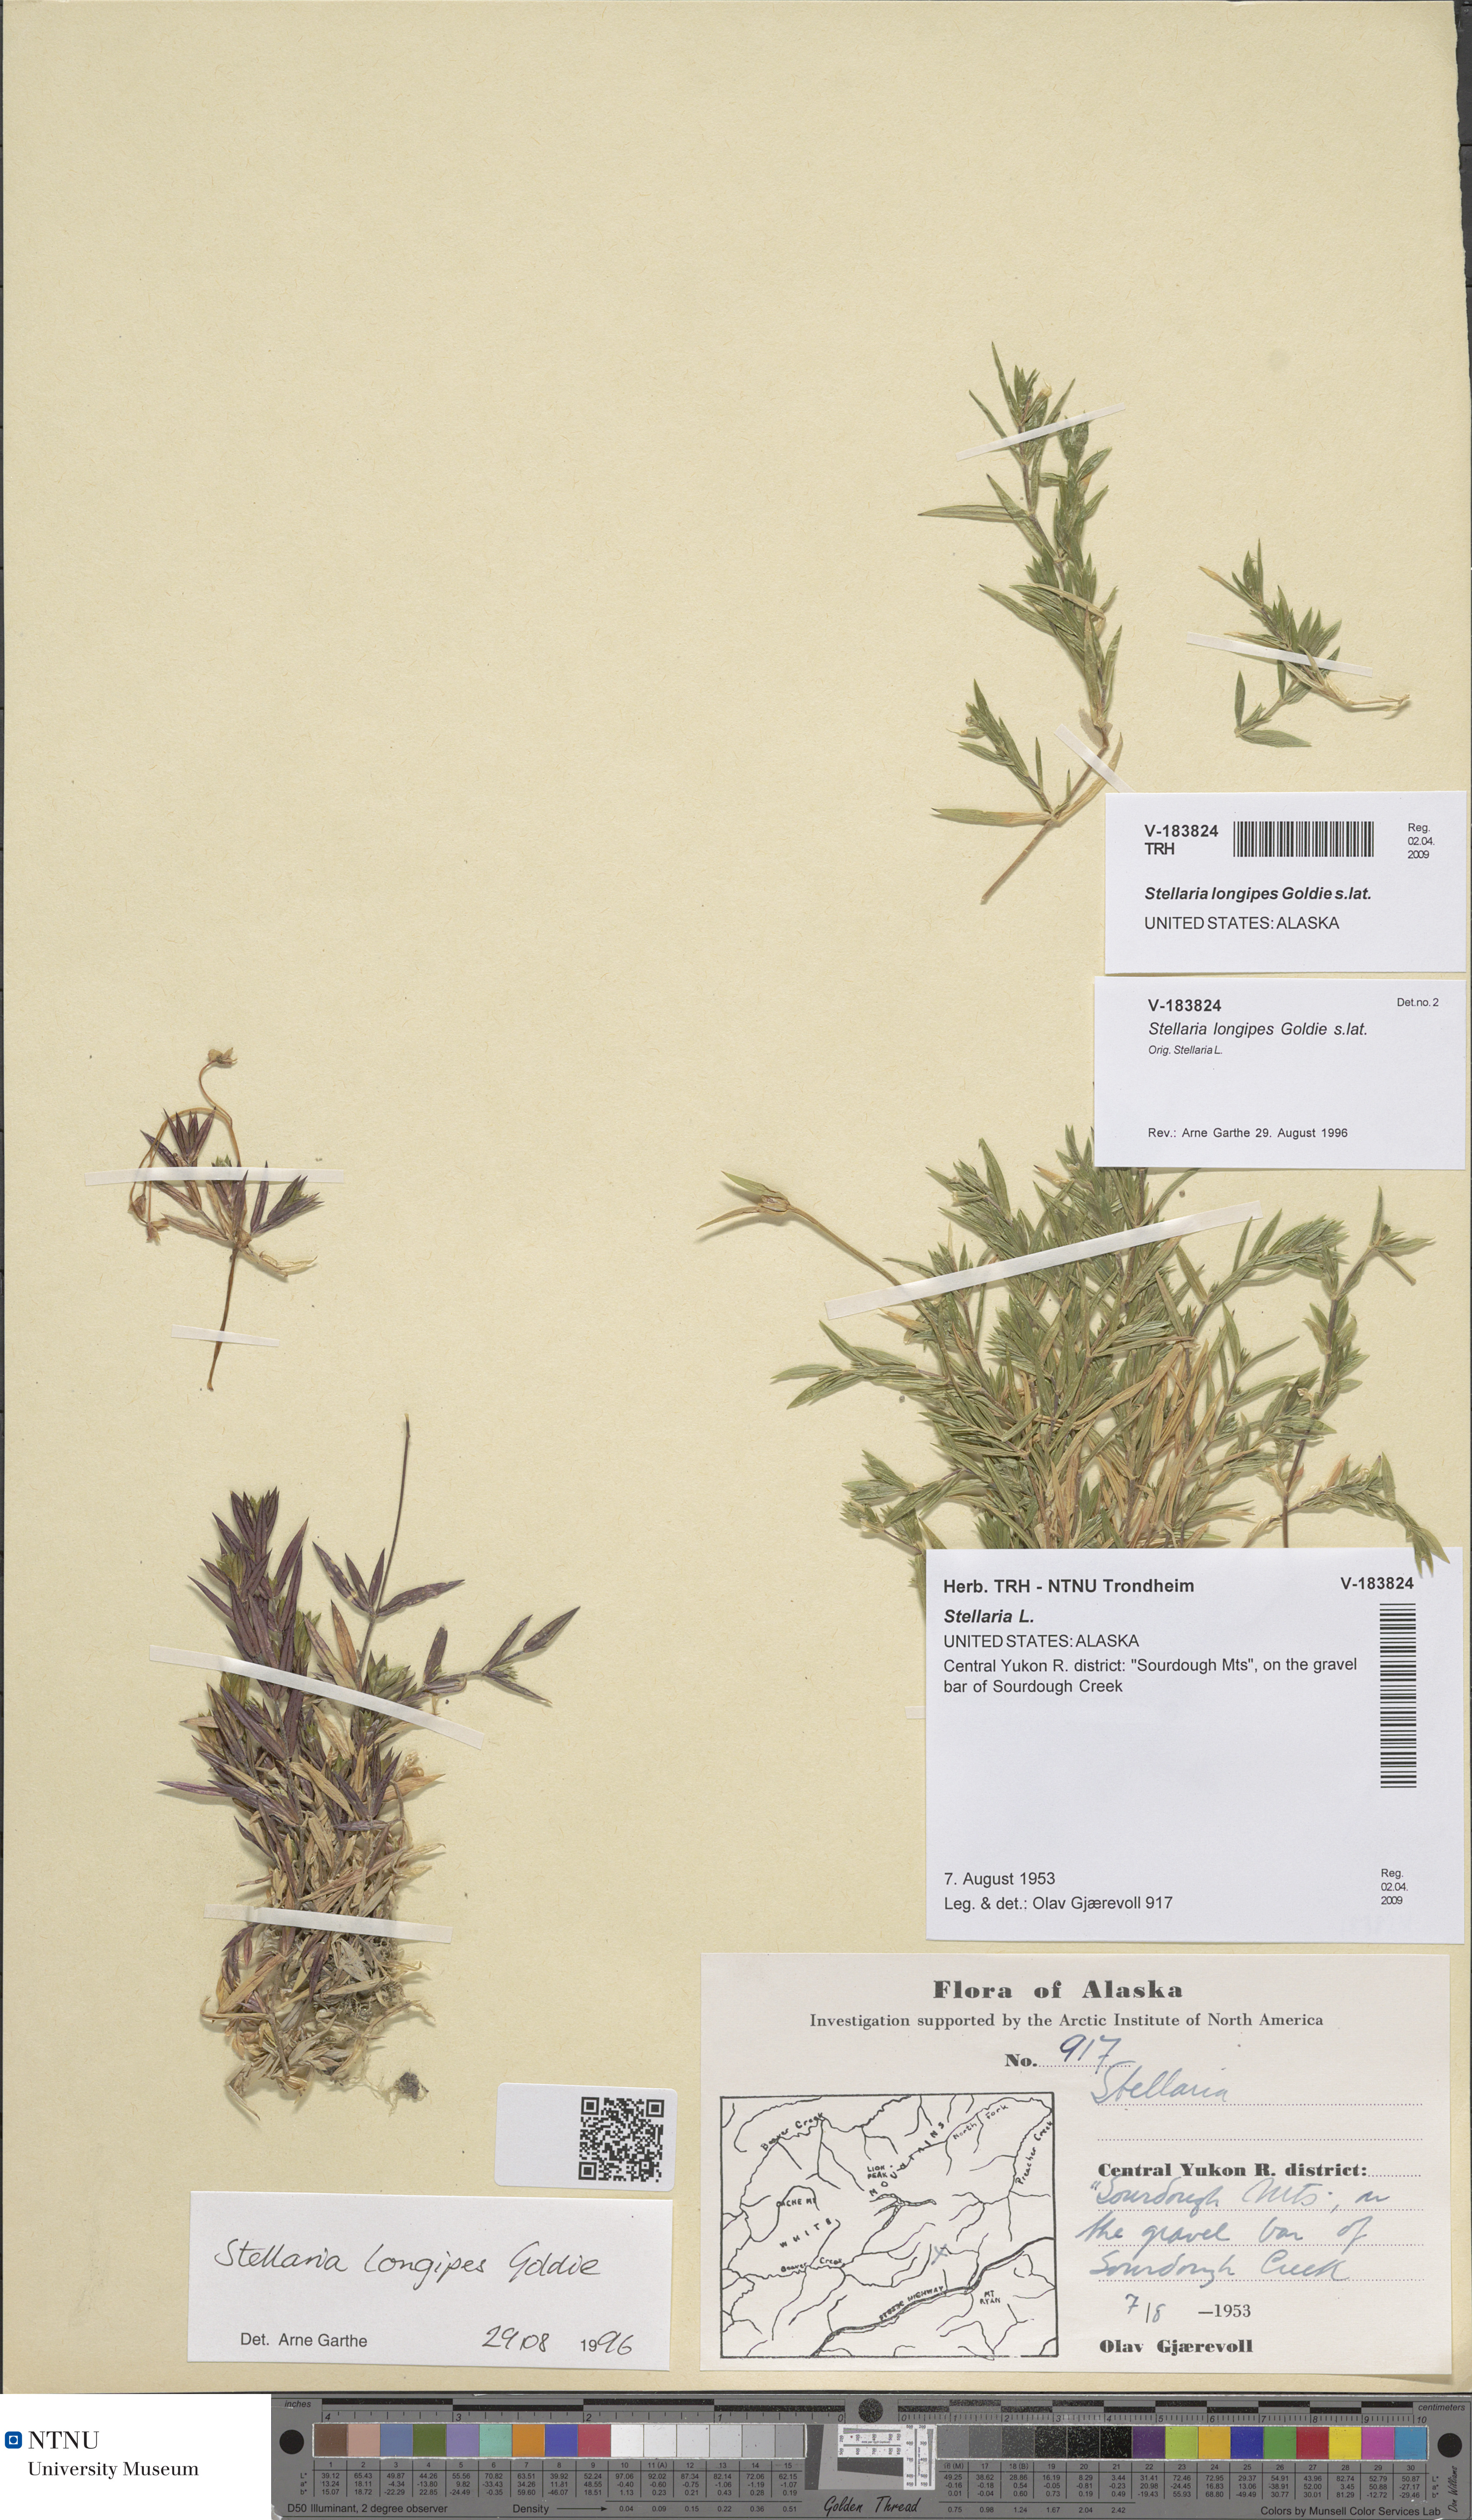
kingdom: Plantae
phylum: Tracheophyta
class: Magnoliopsida
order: Caryophyllales
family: Caryophyllaceae
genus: Stellaria
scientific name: Stellaria longipes
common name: Goldie's starwort
